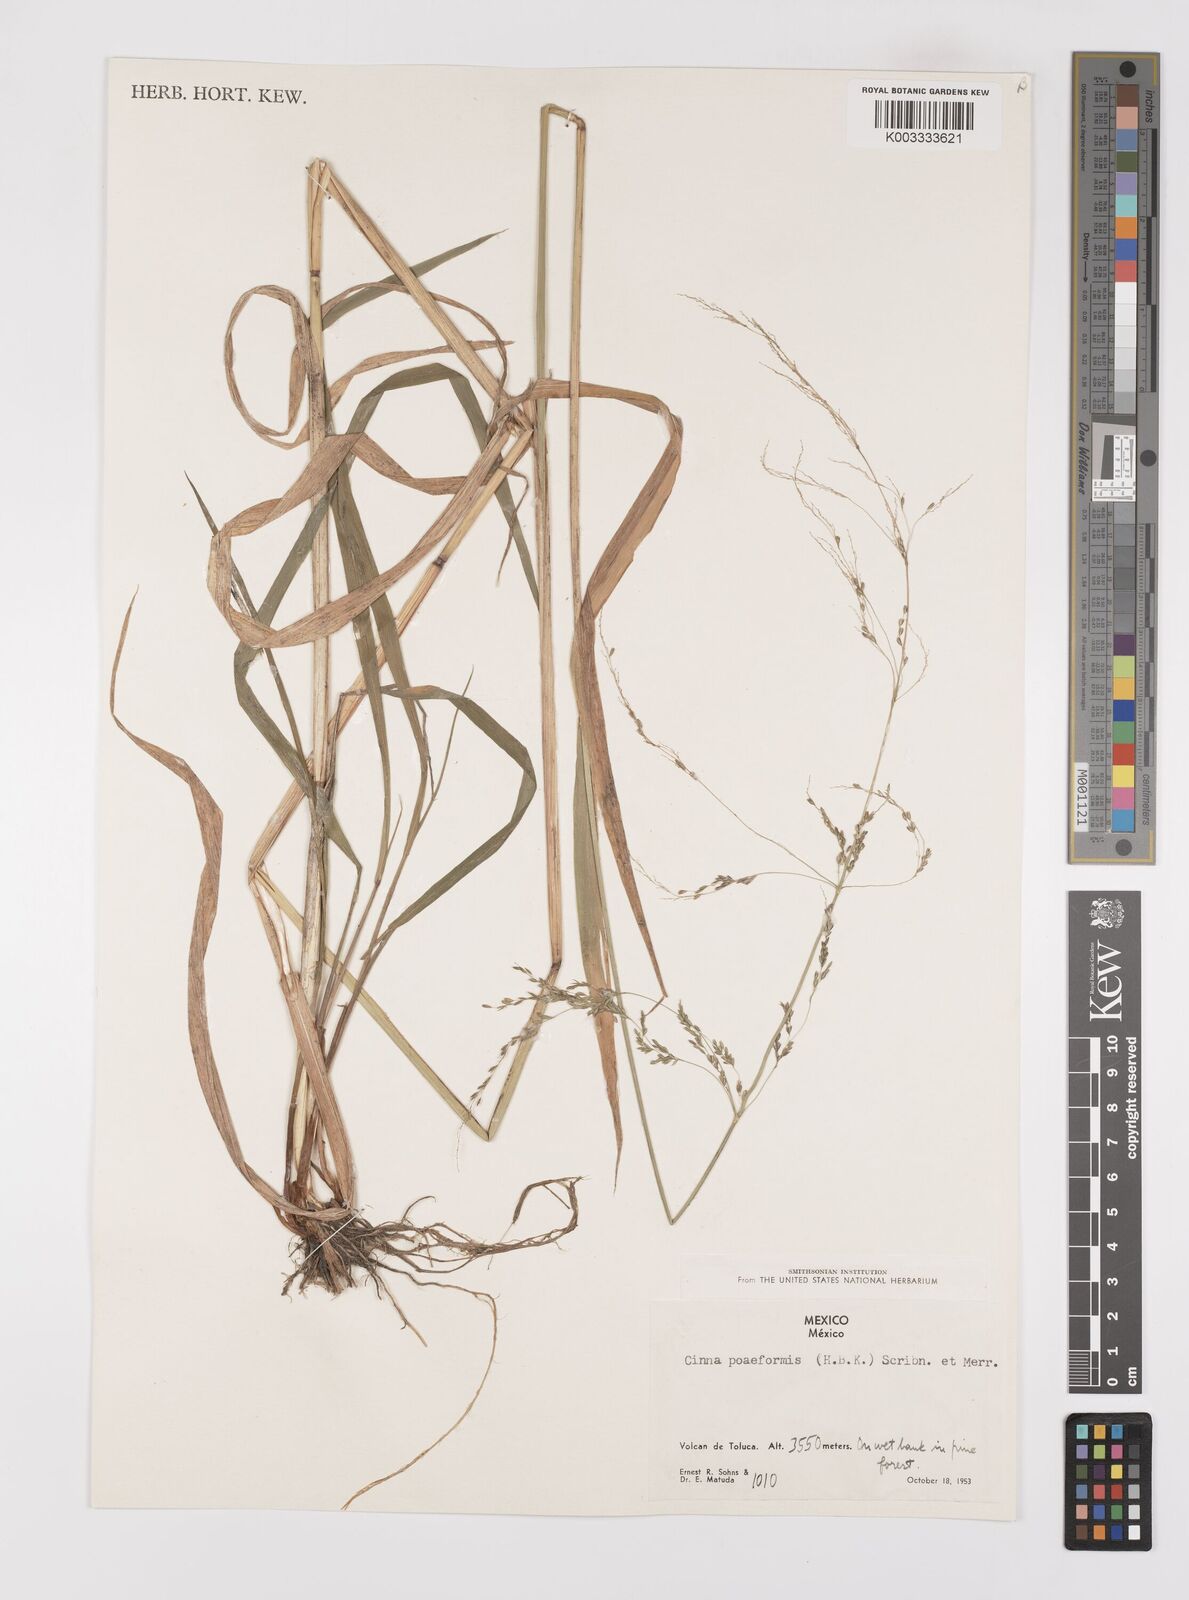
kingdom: Plantae
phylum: Tracheophyta
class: Liliopsida
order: Poales
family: Poaceae
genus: Cinnastrum
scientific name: Cinnastrum poiforme
